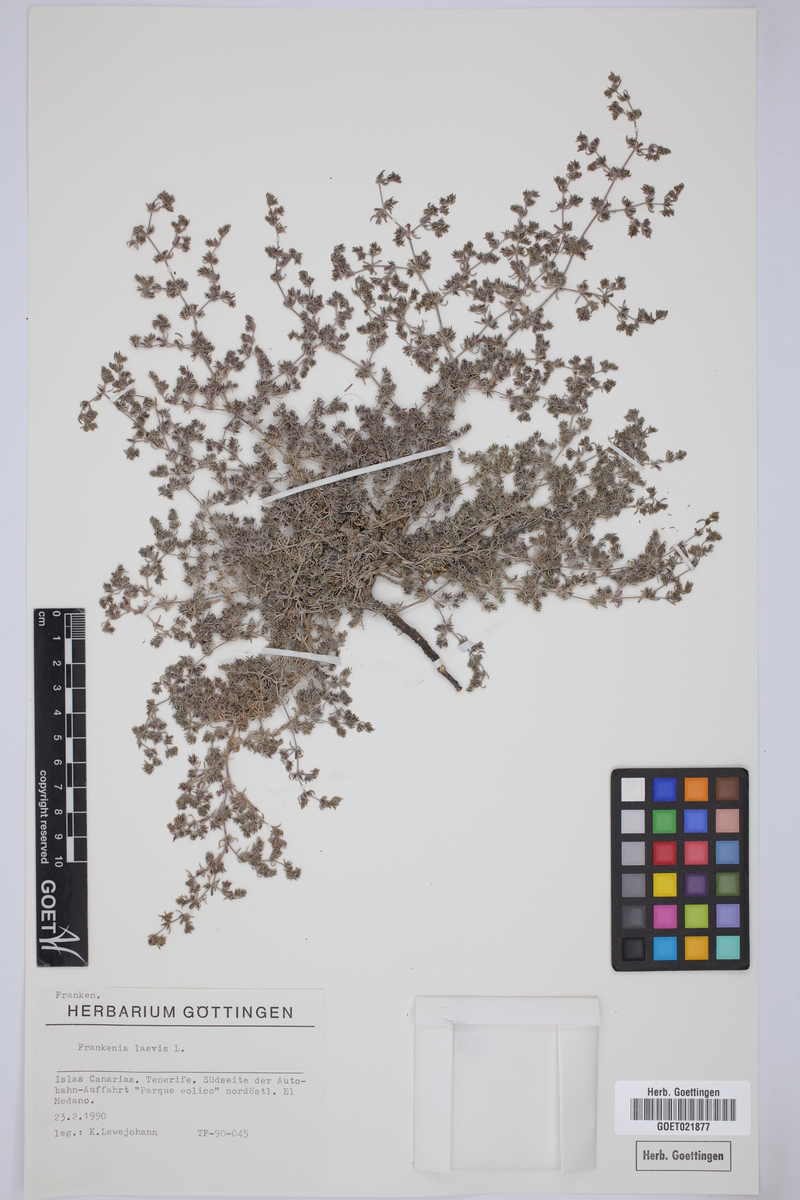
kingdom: Plantae
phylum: Tracheophyta
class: Magnoliopsida
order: Caryophyllales
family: Frankeniaceae
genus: Frankenia
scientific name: Frankenia laevis
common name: Sea-heath
